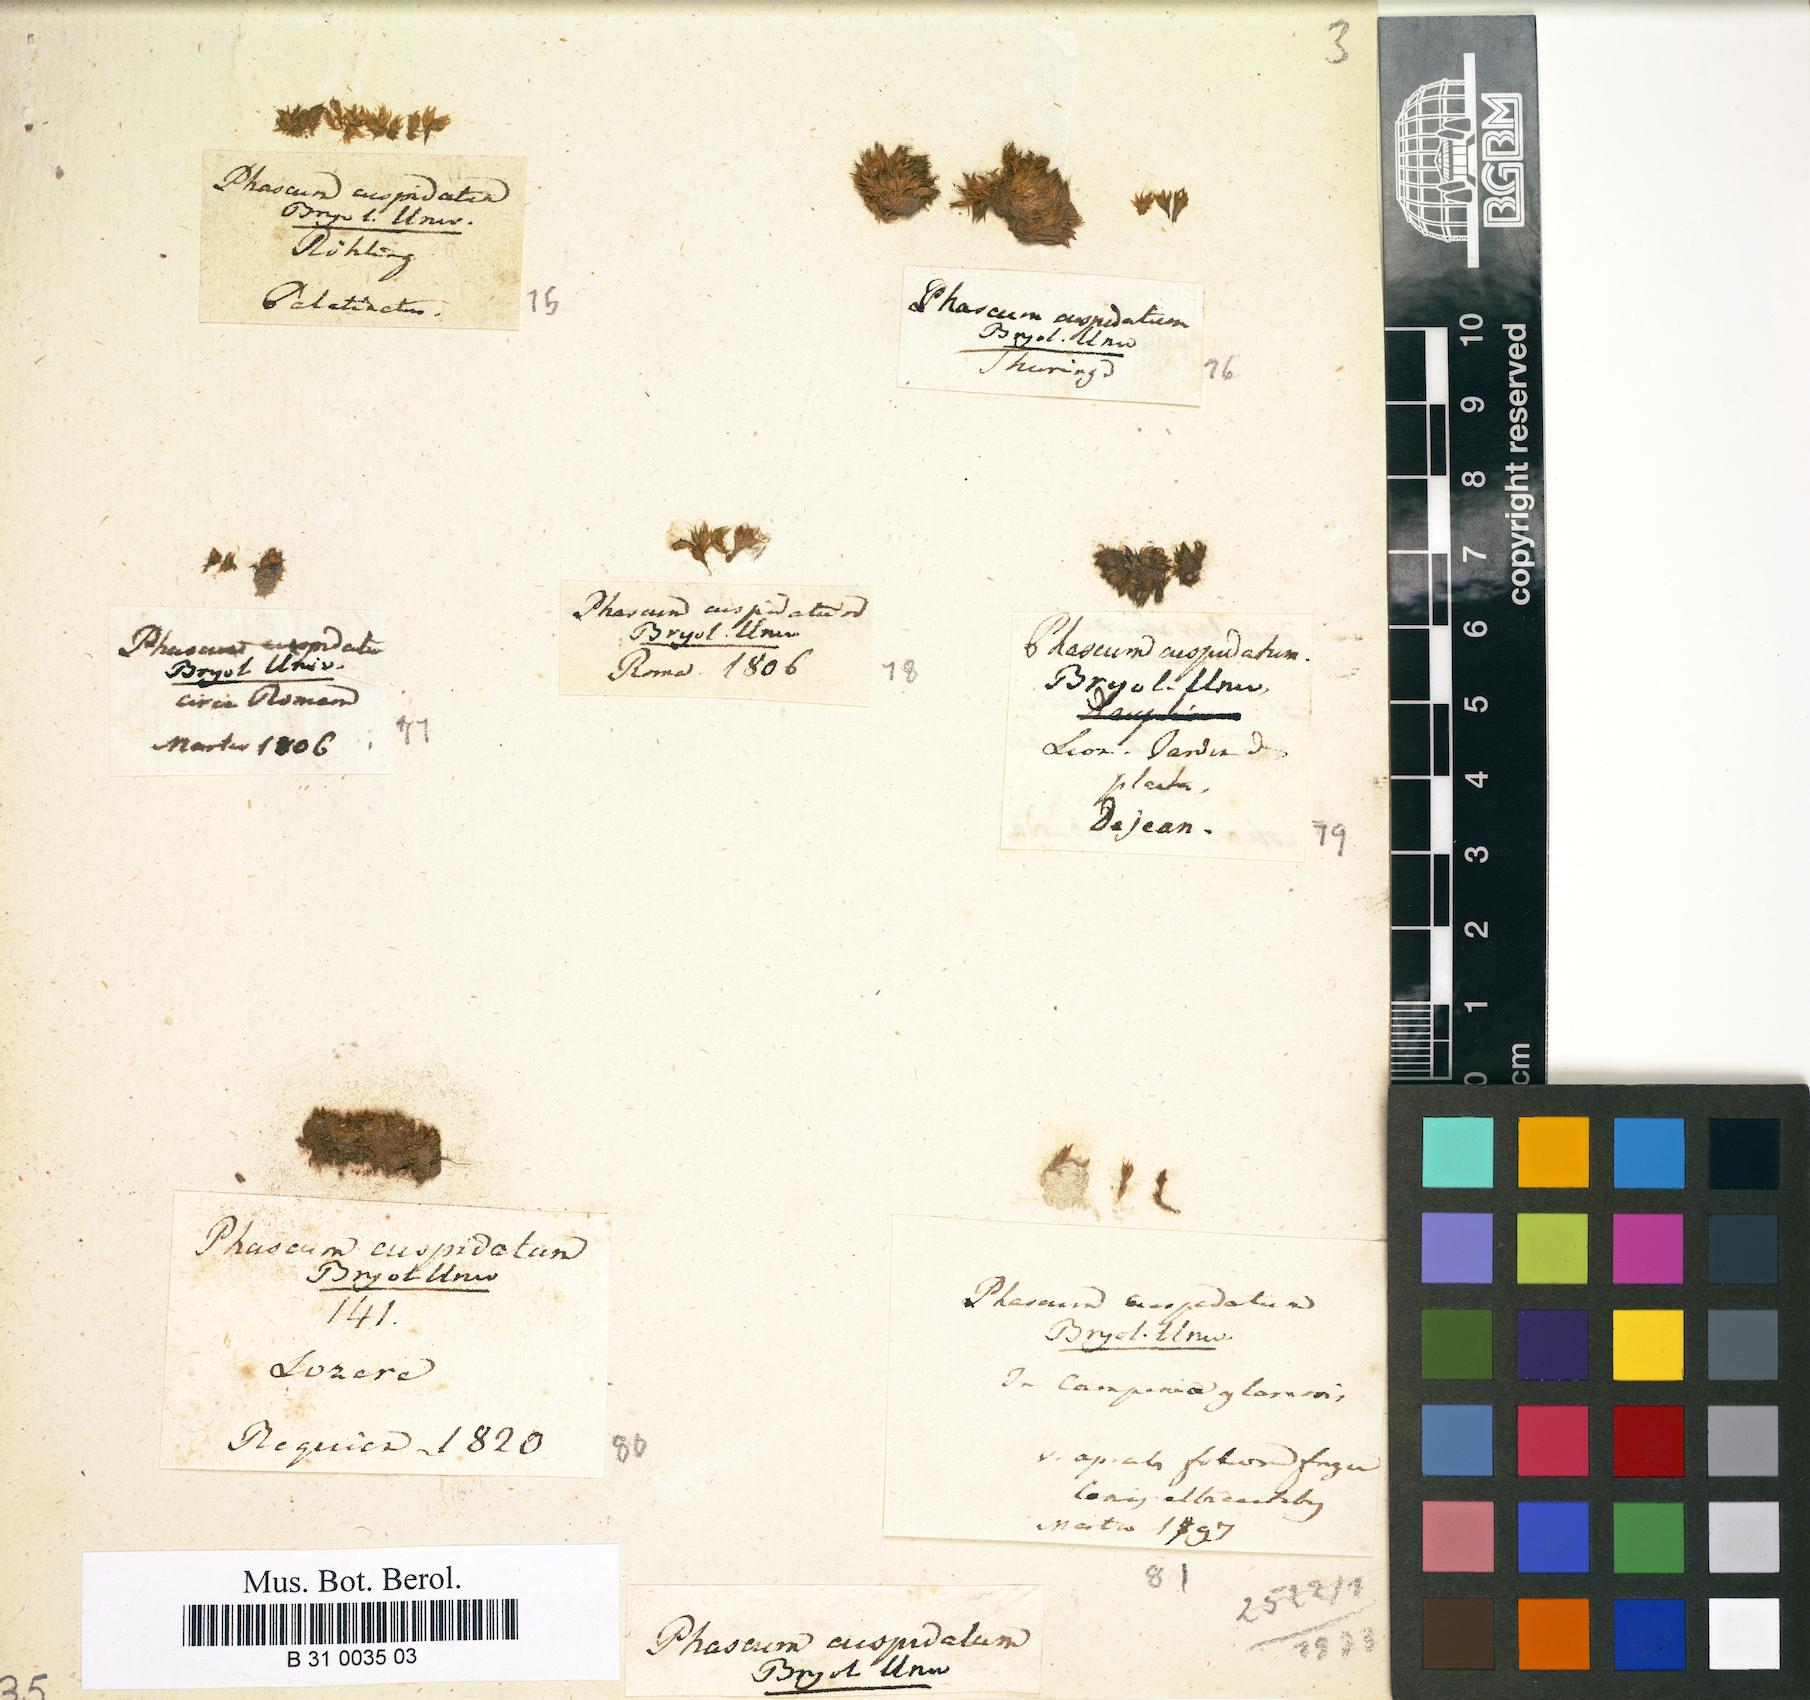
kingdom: Plantae
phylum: Bryophyta
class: Bryopsida
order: Pottiales
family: Pottiaceae
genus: Tortula
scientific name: Tortula acaulon
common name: Cuspidate earth moss
